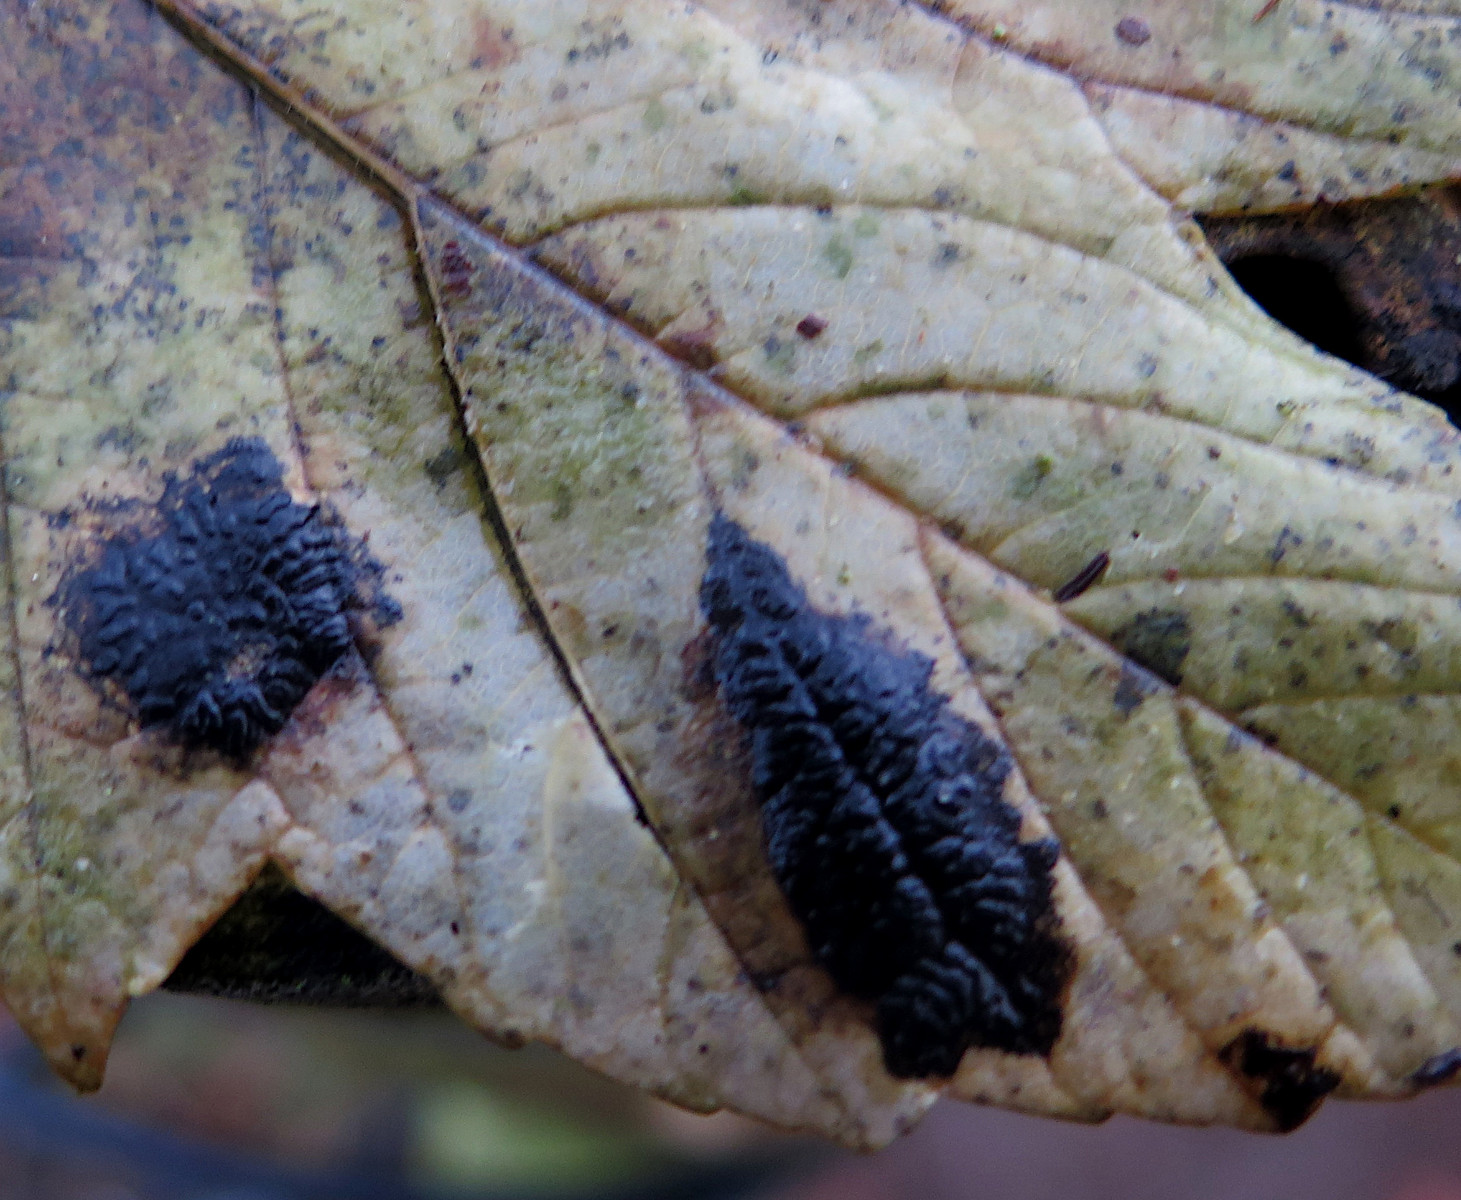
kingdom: Fungi
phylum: Ascomycota
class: Leotiomycetes
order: Rhytismatales
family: Rhytismataceae
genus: Rhytisma
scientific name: Rhytisma acerinum
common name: ahorn-rynkeplet
